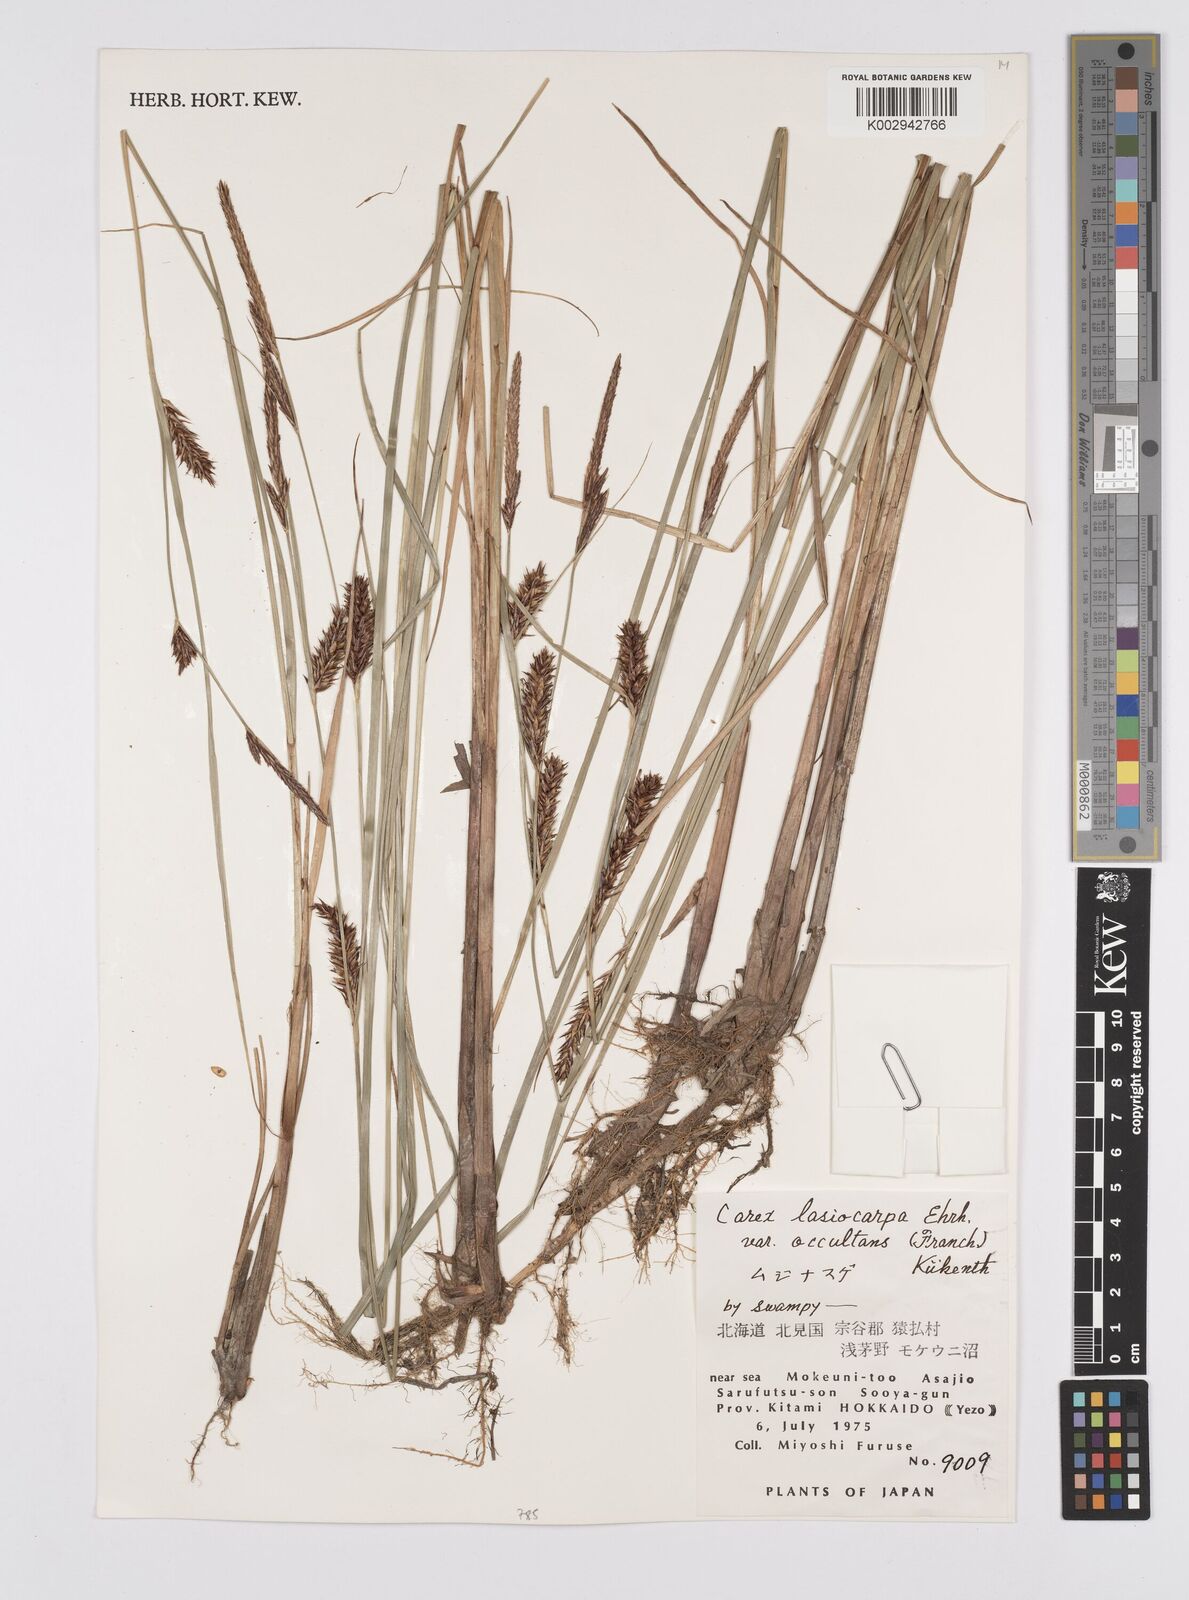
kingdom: Plantae
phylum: Tracheophyta
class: Liliopsida
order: Poales
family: Cyperaceae
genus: Carex
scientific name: Carex lasiocarpa
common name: Slender sedge
